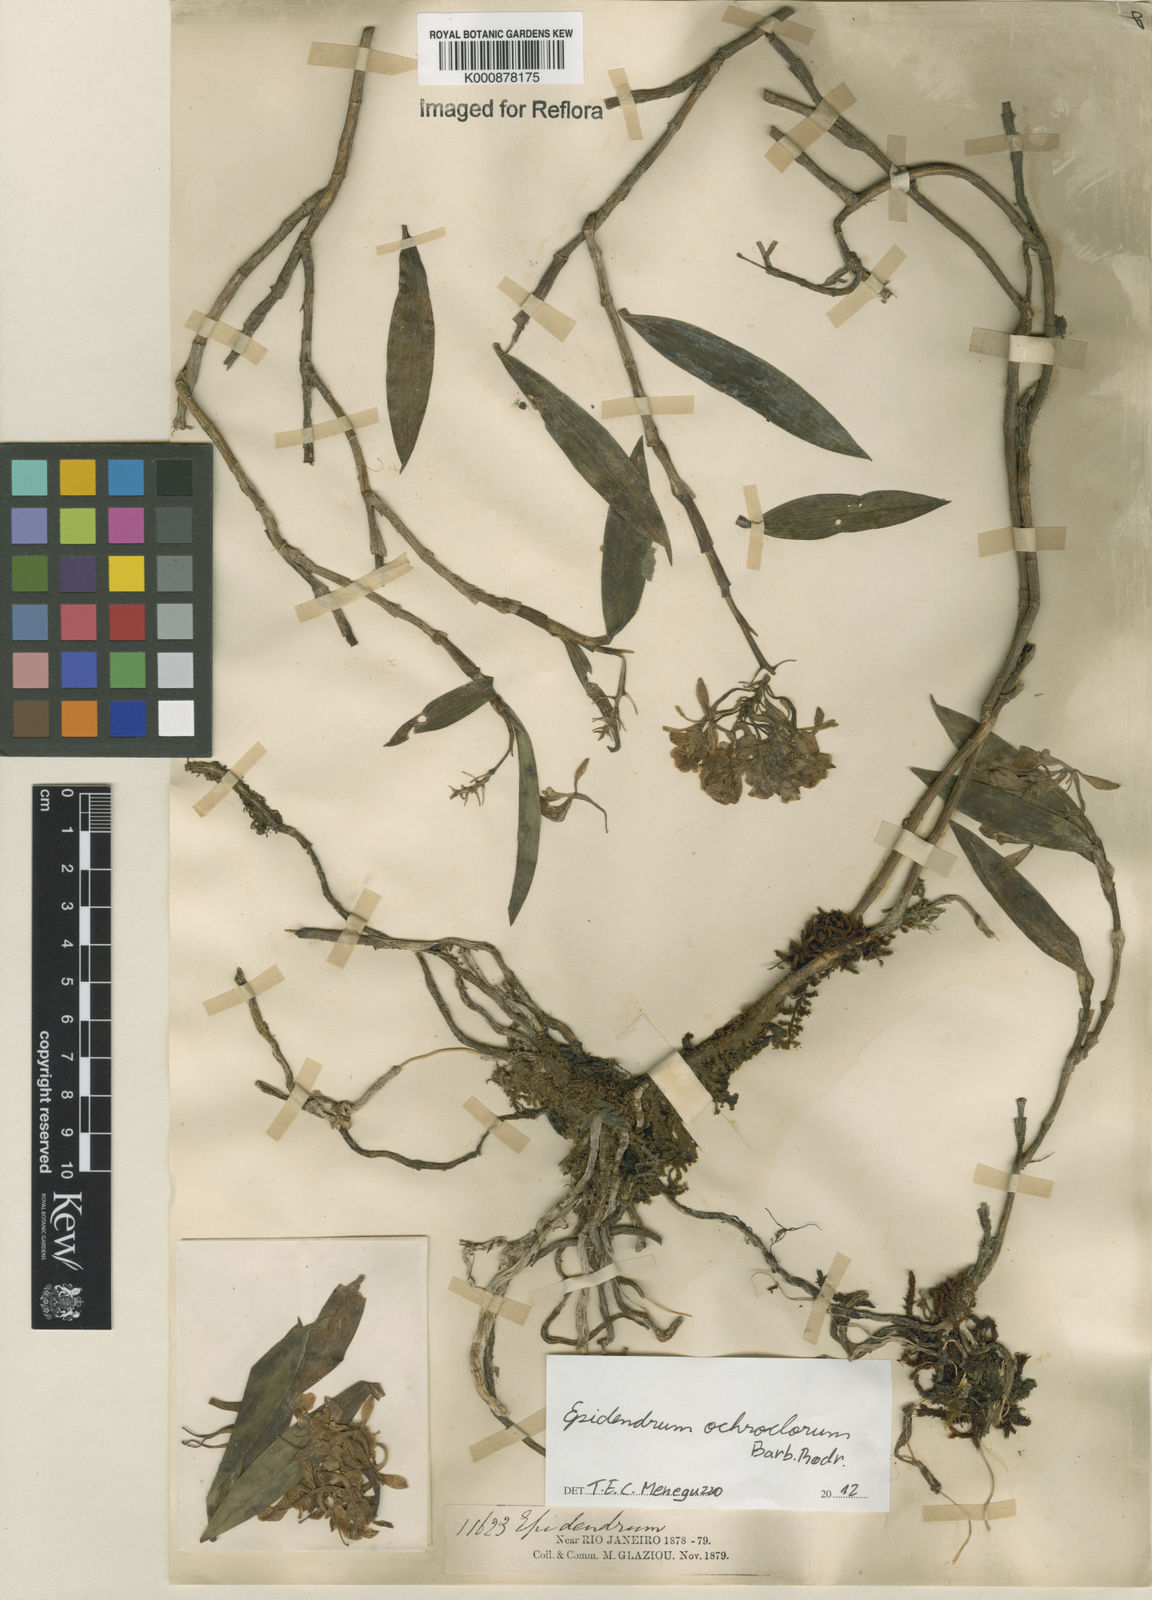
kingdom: Plantae
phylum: Tracheophyta
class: Liliopsida
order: Asparagales
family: Orchidaceae
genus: Epidendrum
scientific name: Epidendrum proligerum
